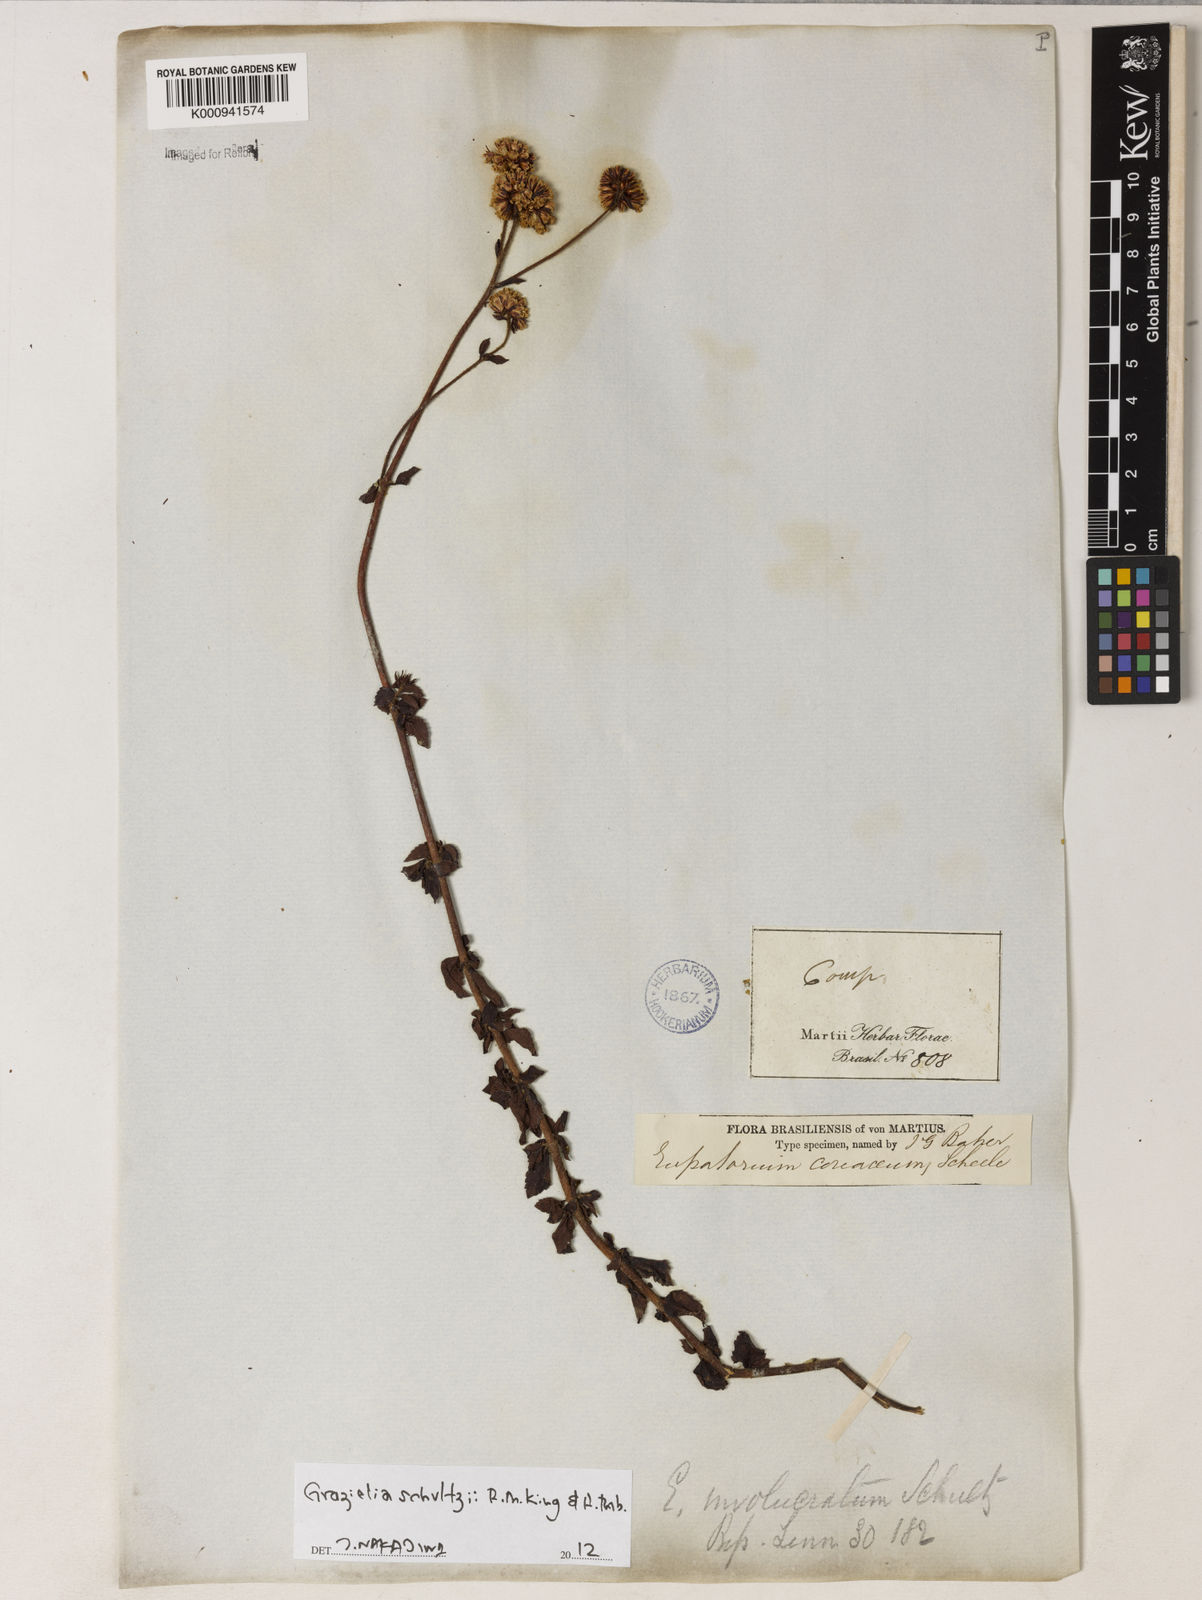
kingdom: Plantae
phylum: Tracheophyta
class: Magnoliopsida
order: Asterales
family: Asteraceae
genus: Grazielia
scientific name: Grazielia
